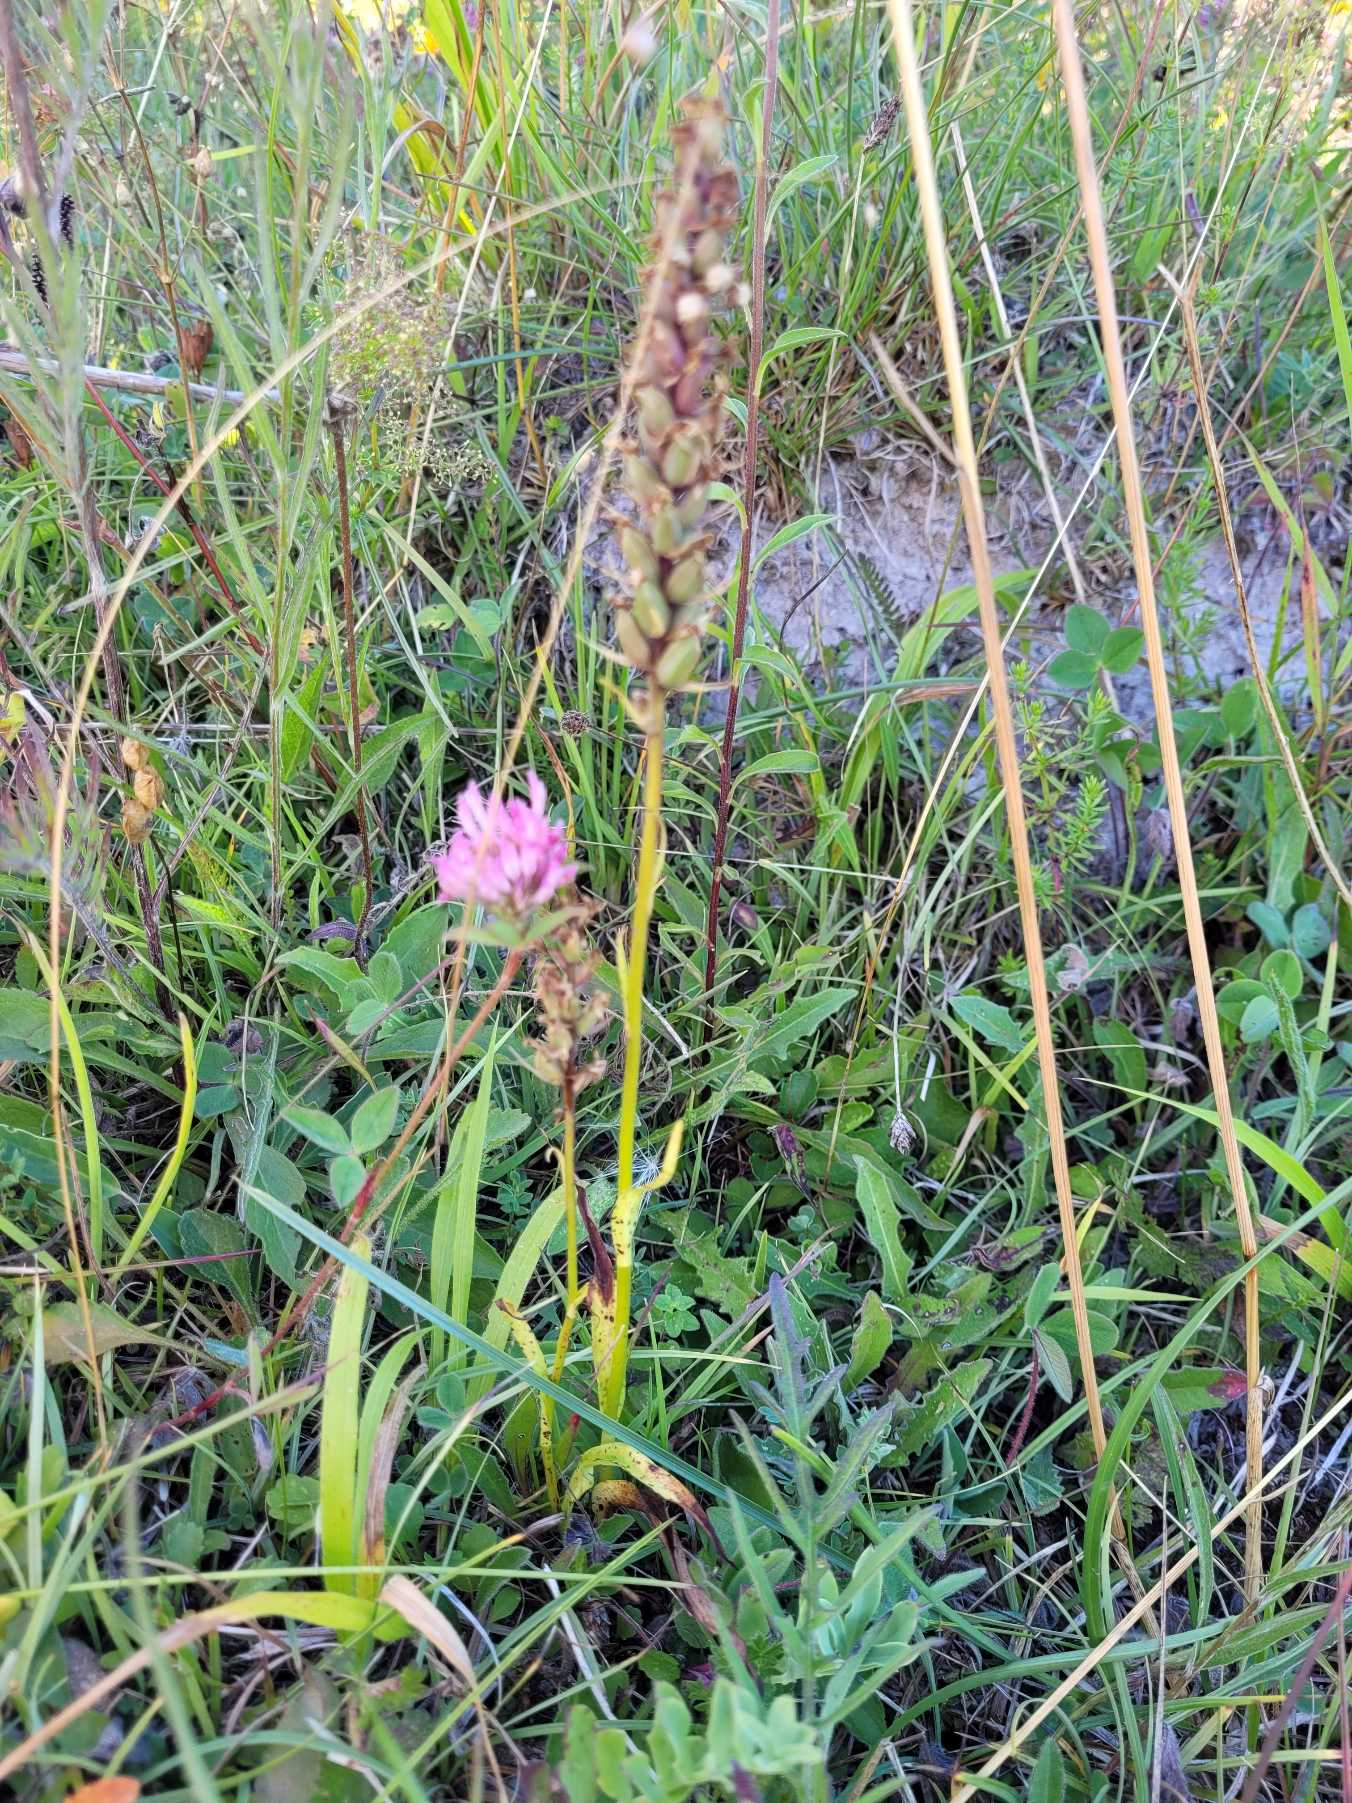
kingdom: Plantae
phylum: Tracheophyta
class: Liliopsida
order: Asparagales
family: Orchidaceae
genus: Platanthera
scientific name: Platanthera chlorantha
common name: Skov-gøgelilje
